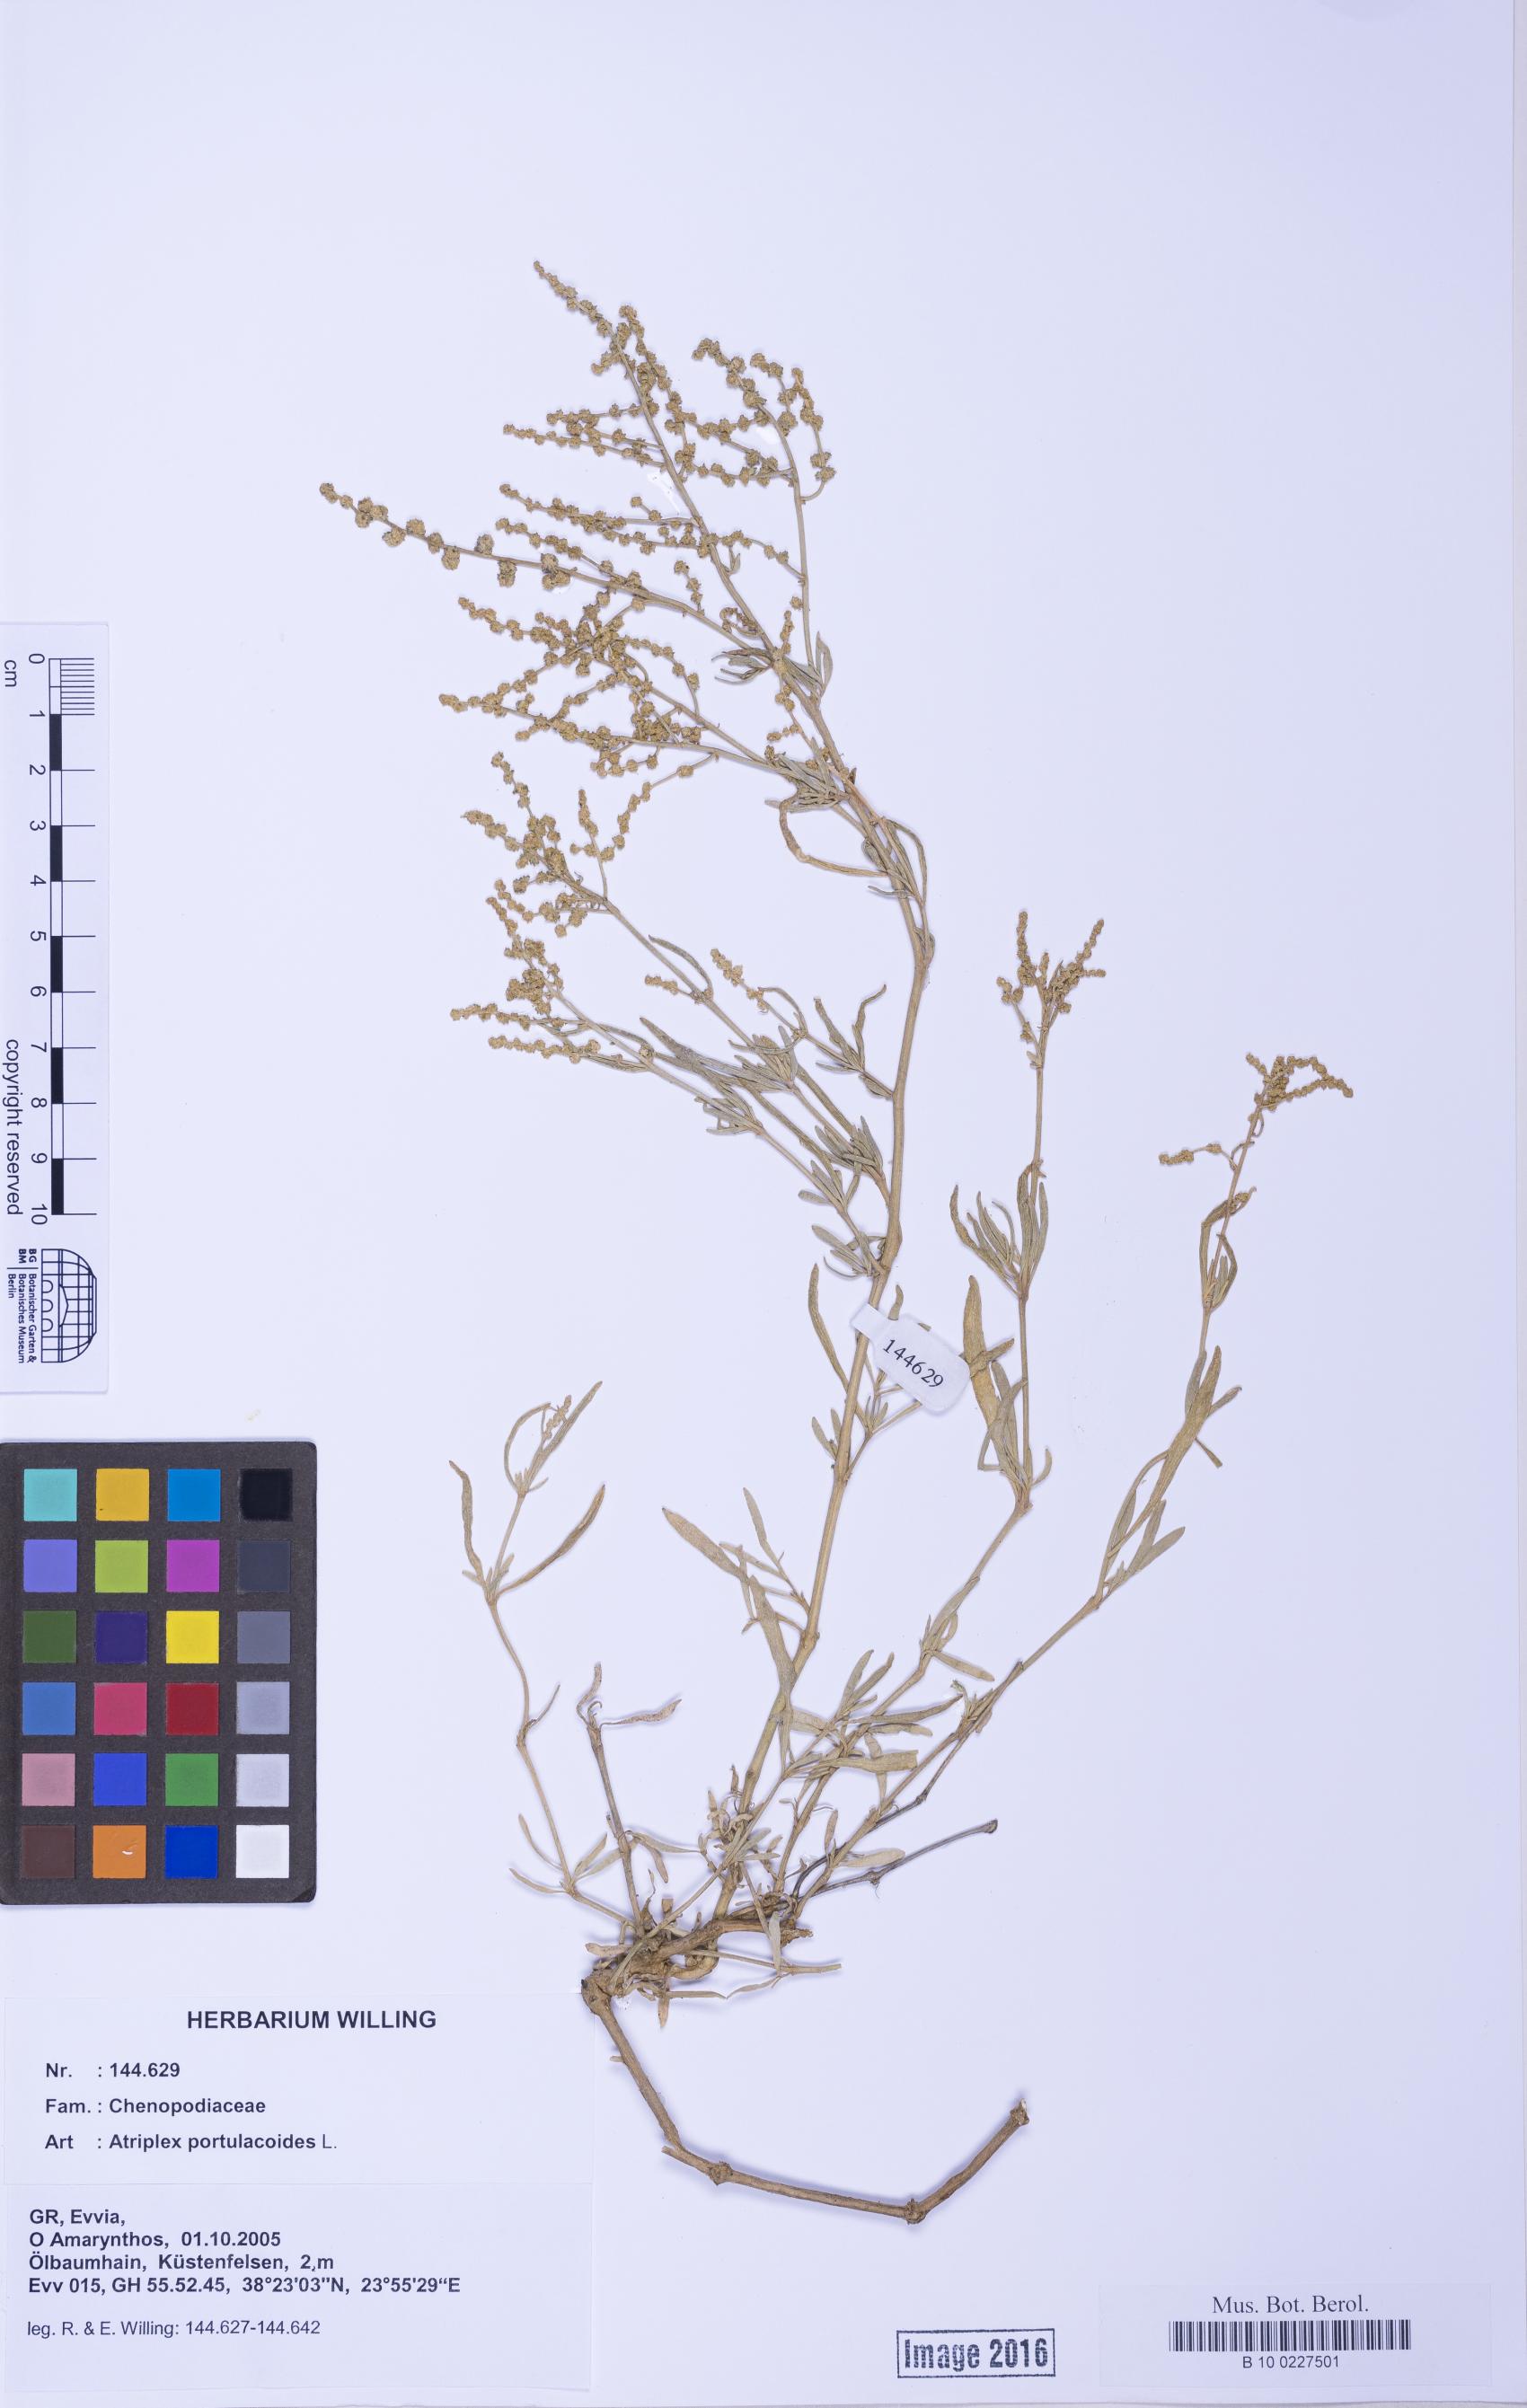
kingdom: Plantae
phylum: Tracheophyta
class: Magnoliopsida
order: Caryophyllales
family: Amaranthaceae
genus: Halimione
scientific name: Halimione portulacoides
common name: Sea-purslane
